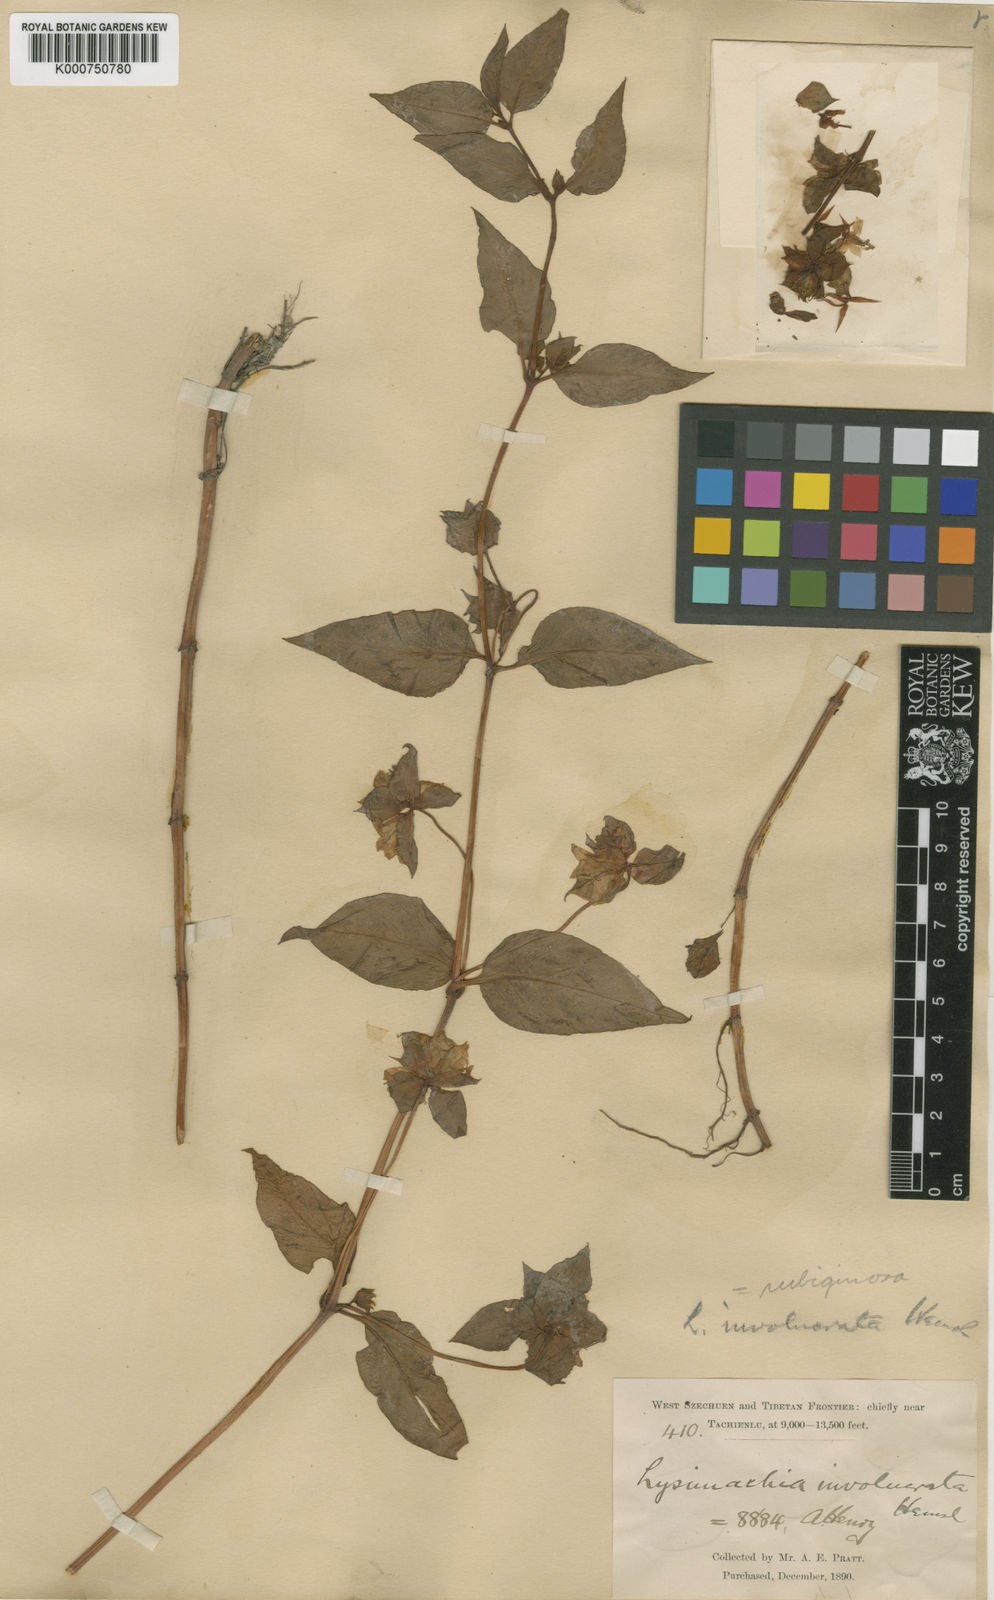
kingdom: Plantae
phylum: Tracheophyta
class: Magnoliopsida
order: Ericales
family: Primulaceae
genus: Lysimachia
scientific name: Lysimachia rubiginosa
